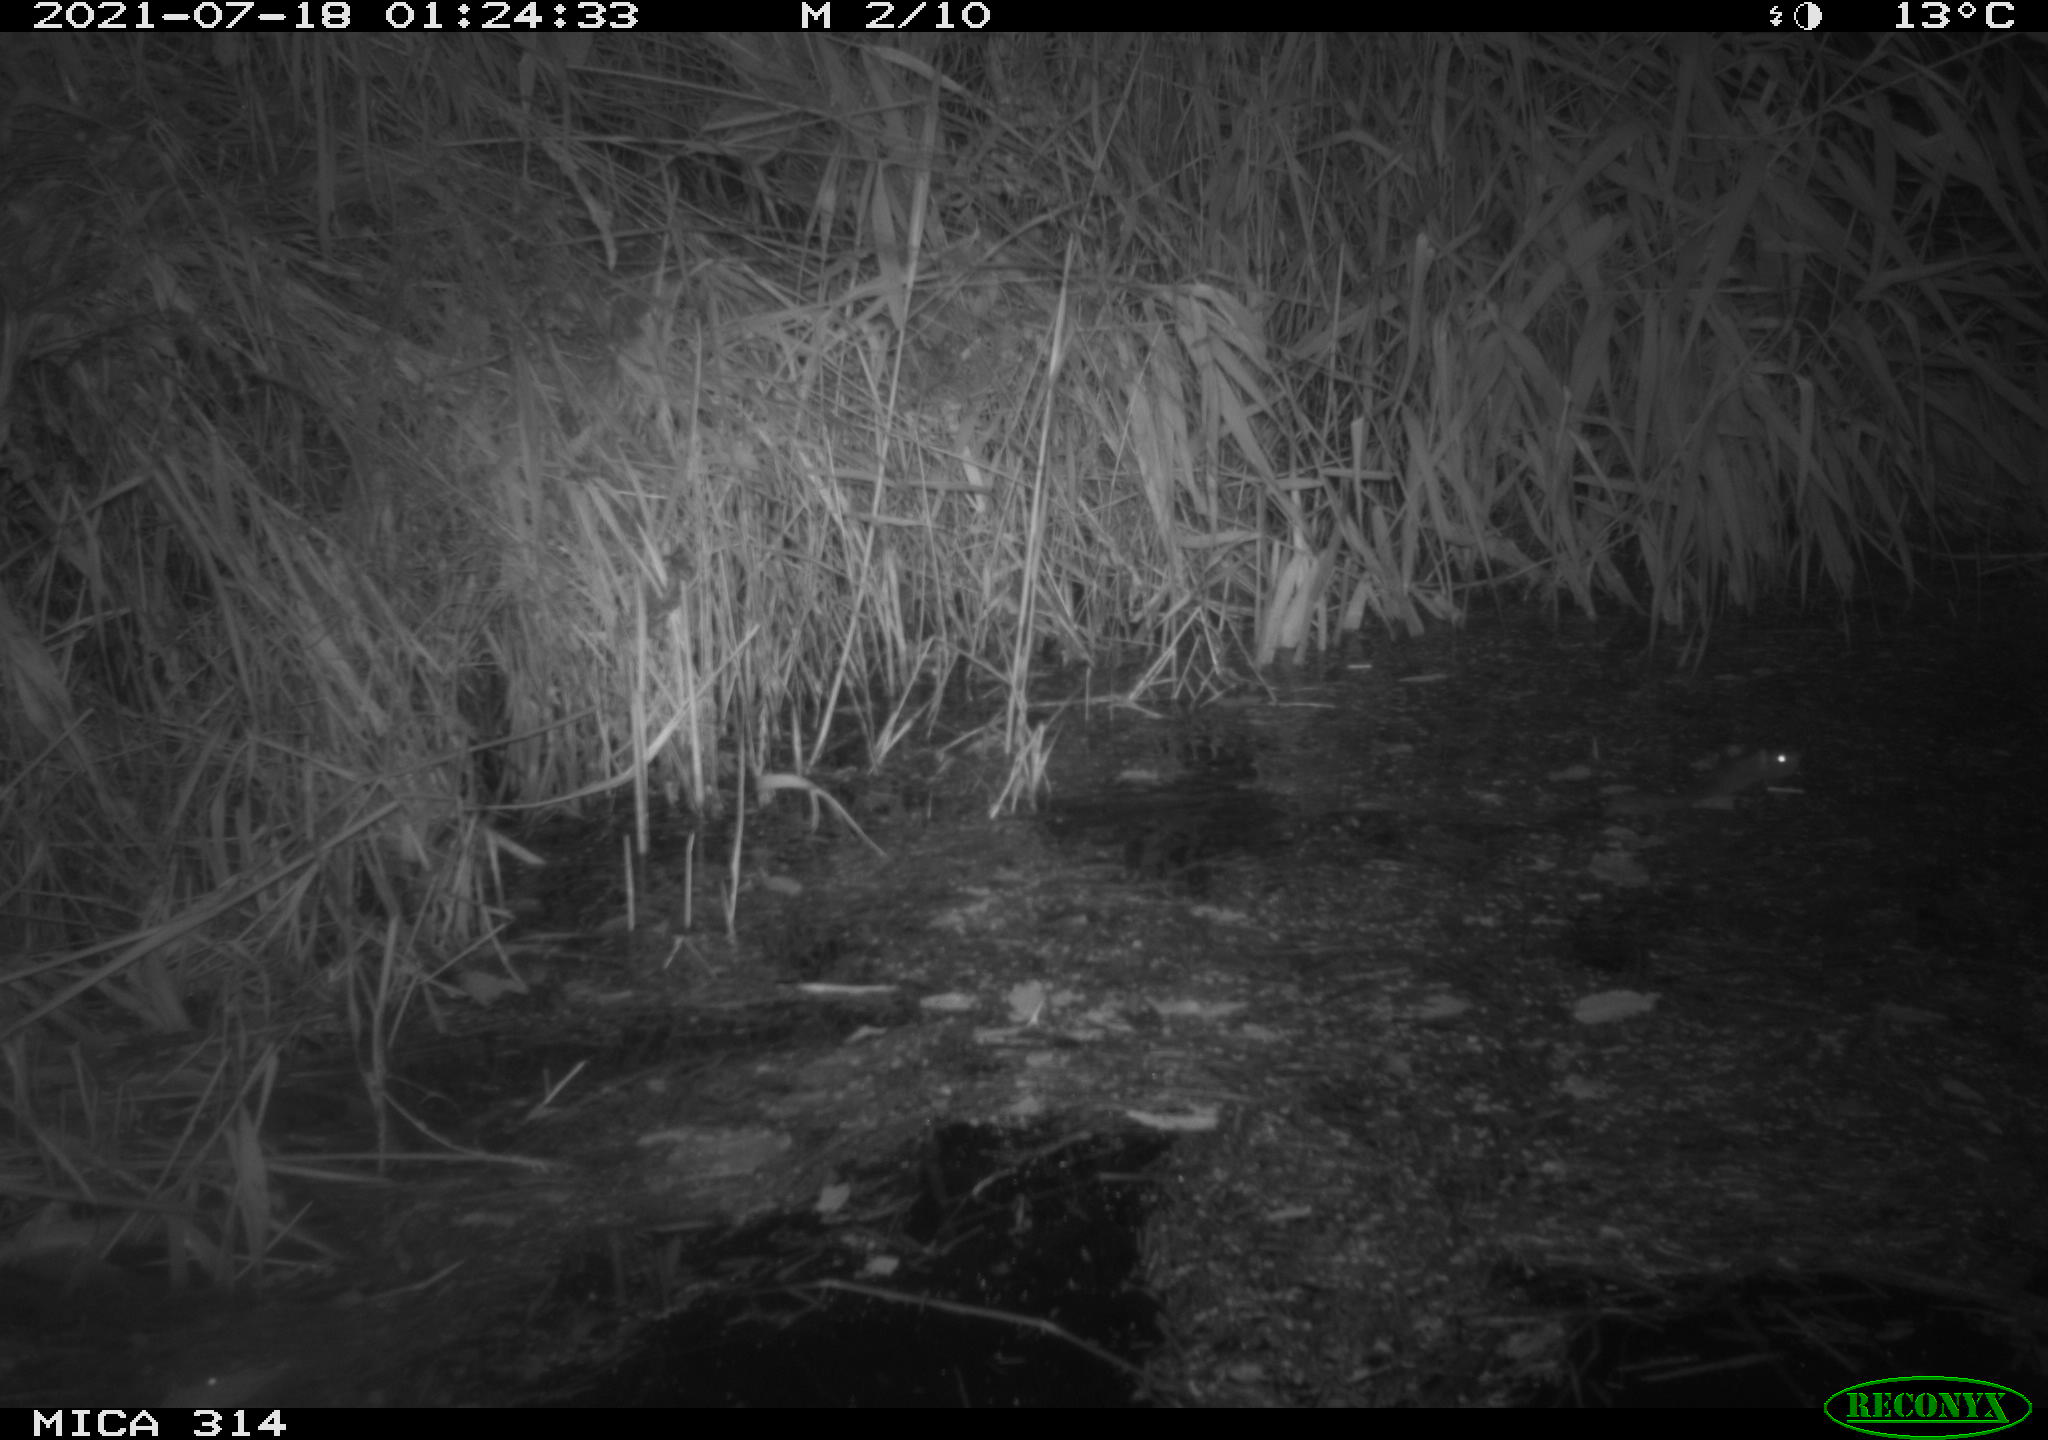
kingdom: Animalia
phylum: Chordata
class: Mammalia
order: Rodentia
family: Muridae
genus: Rattus
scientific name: Rattus norvegicus
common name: Brown rat
